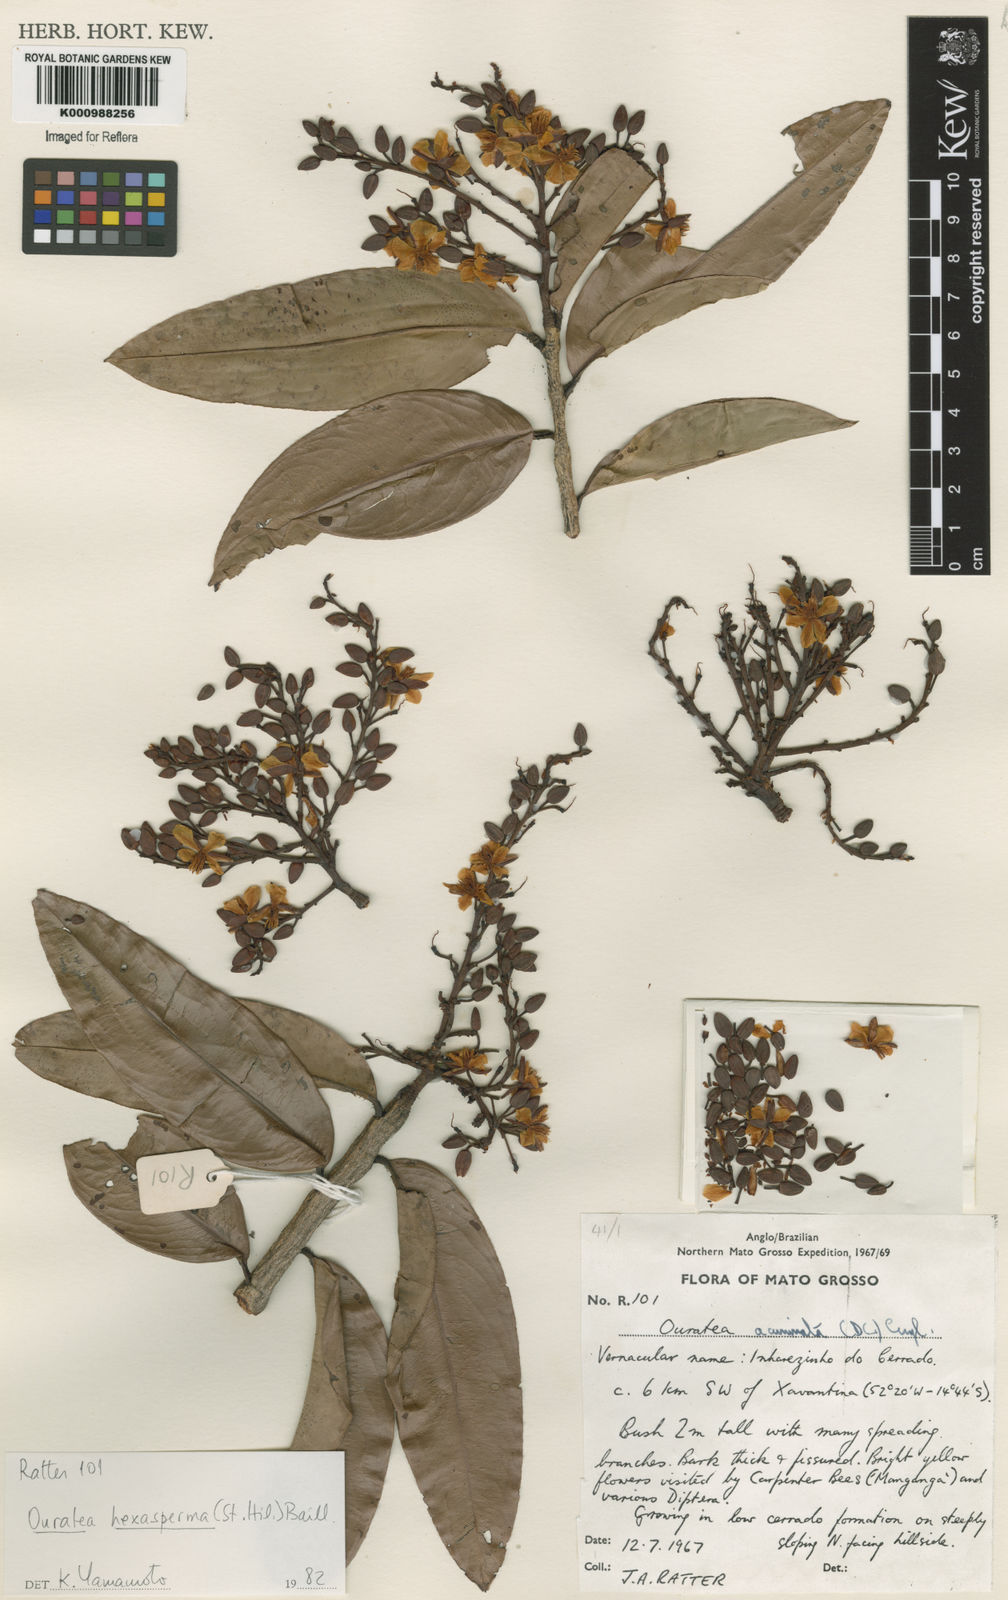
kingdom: Plantae
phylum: Tracheophyta
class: Magnoliopsida
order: Malpighiales
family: Ochnaceae
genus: Ouratea
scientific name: Ouratea hexasperma
